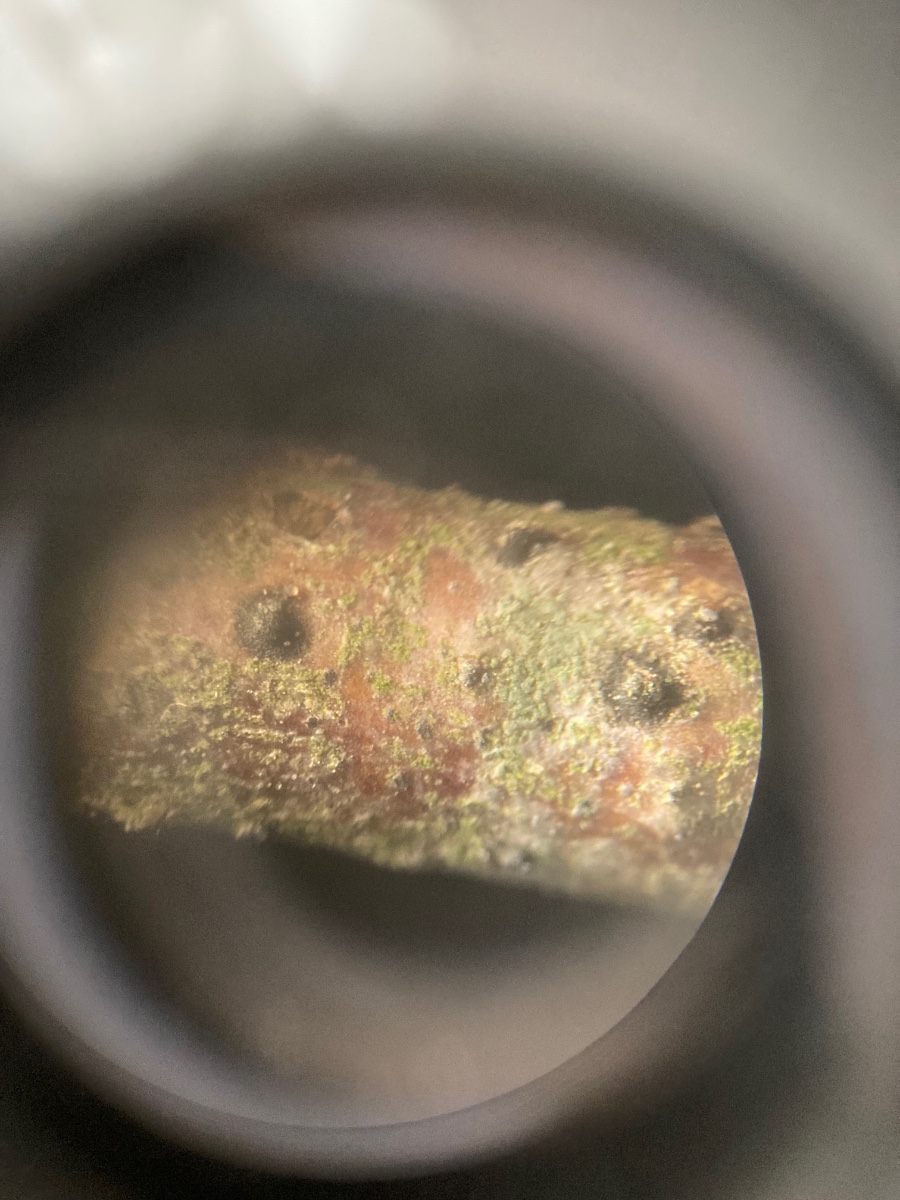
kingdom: Fungi
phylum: Ascomycota
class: Leotiomycetes
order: Helotiales
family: Mollisiaceae
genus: Cheirospora
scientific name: Cheirospora botryospora
